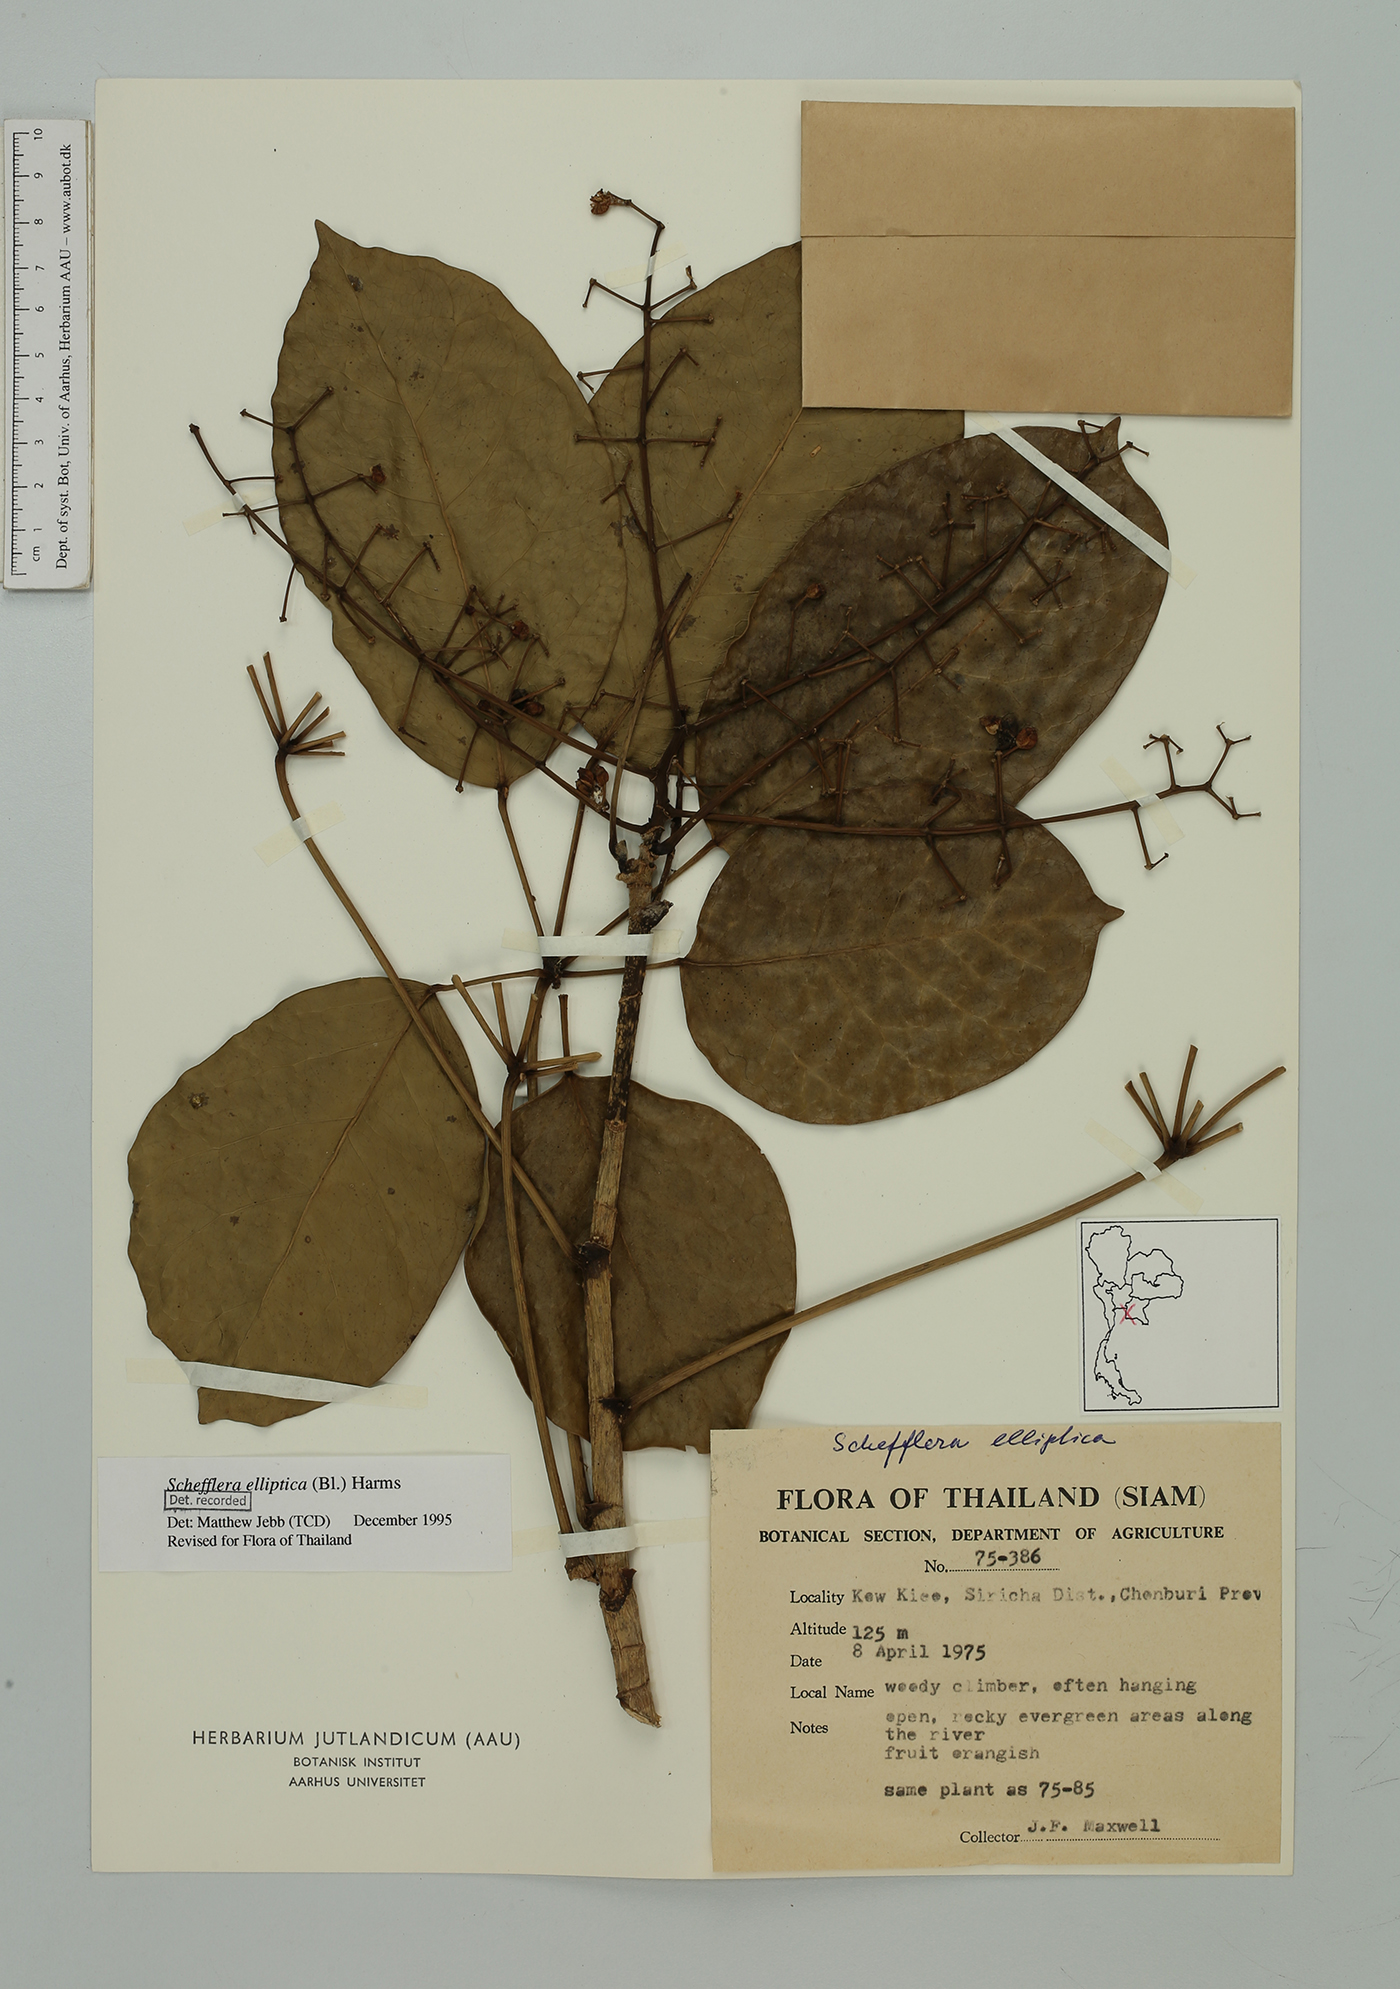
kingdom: Plantae
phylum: Tracheophyta
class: Magnoliopsida
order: Apiales
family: Araliaceae
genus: Heptapleurum
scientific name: Heptapleurum ellipticum
